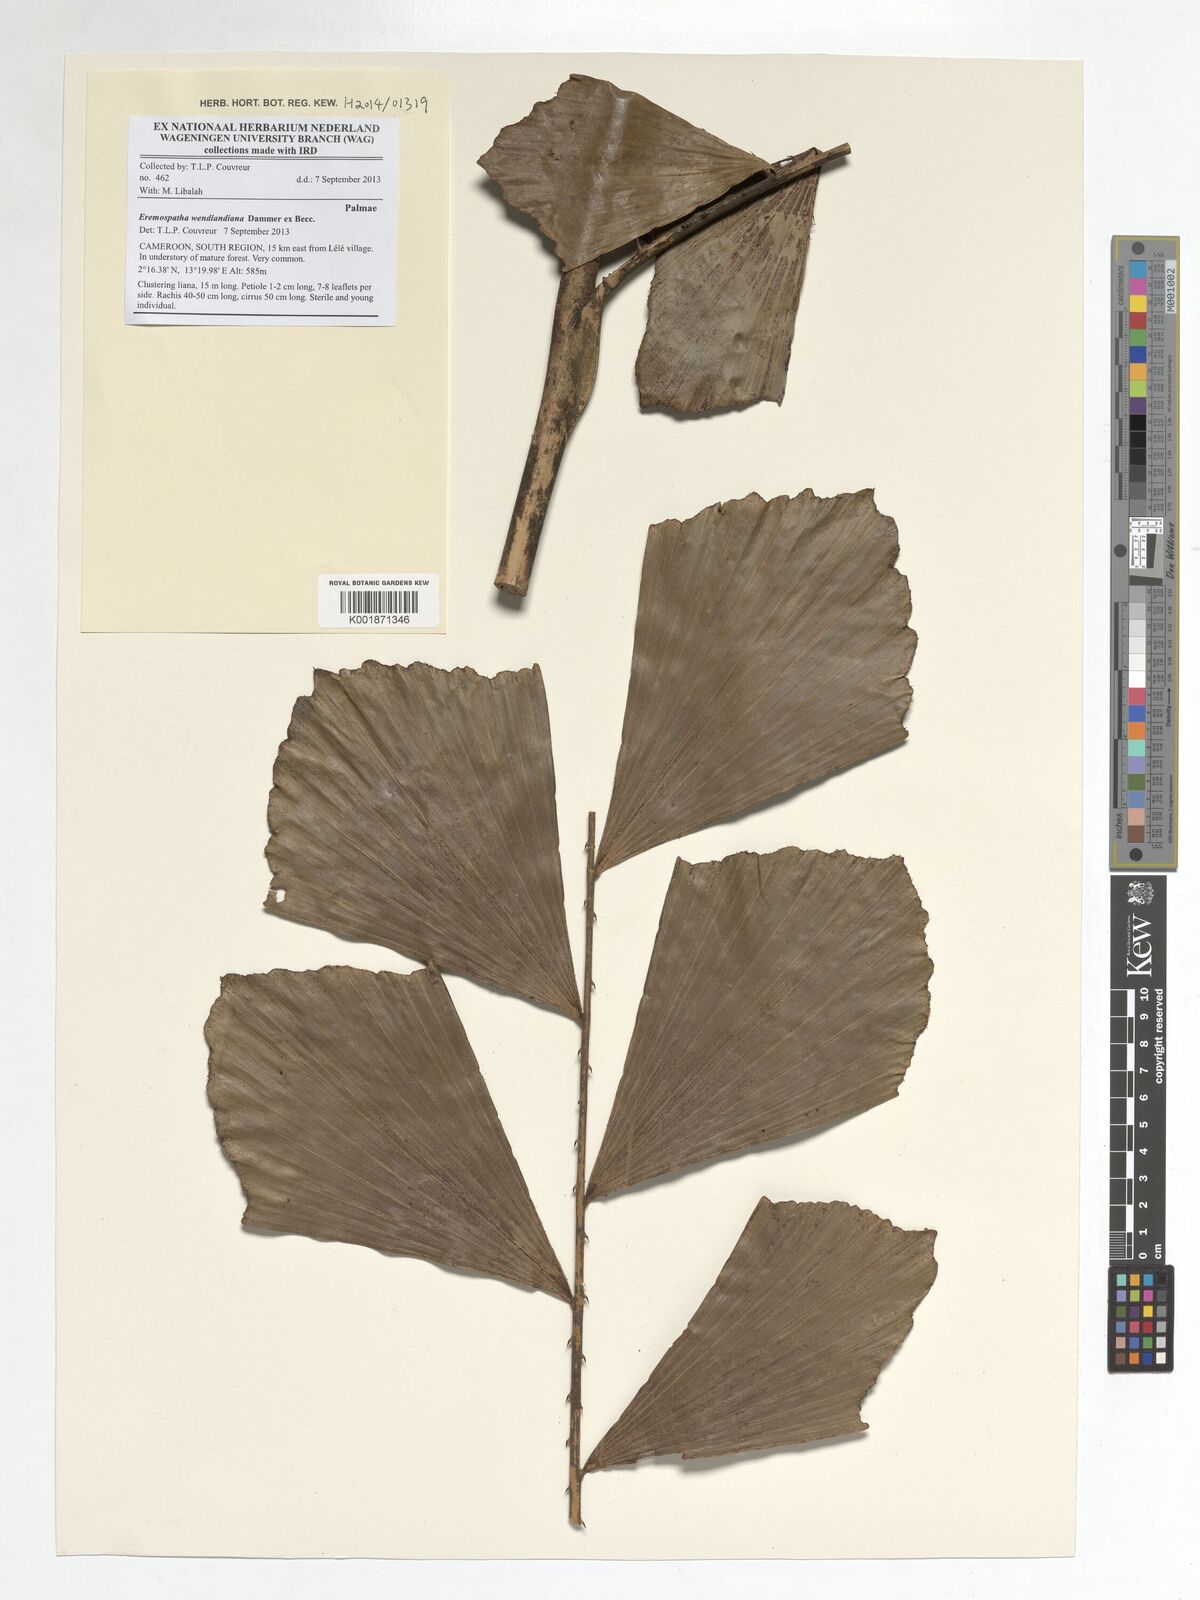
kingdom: Plantae
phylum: Tracheophyta
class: Liliopsida
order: Arecales
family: Arecaceae
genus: Eremospatha
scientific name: Eremospatha wendlandiana
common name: Rattan
